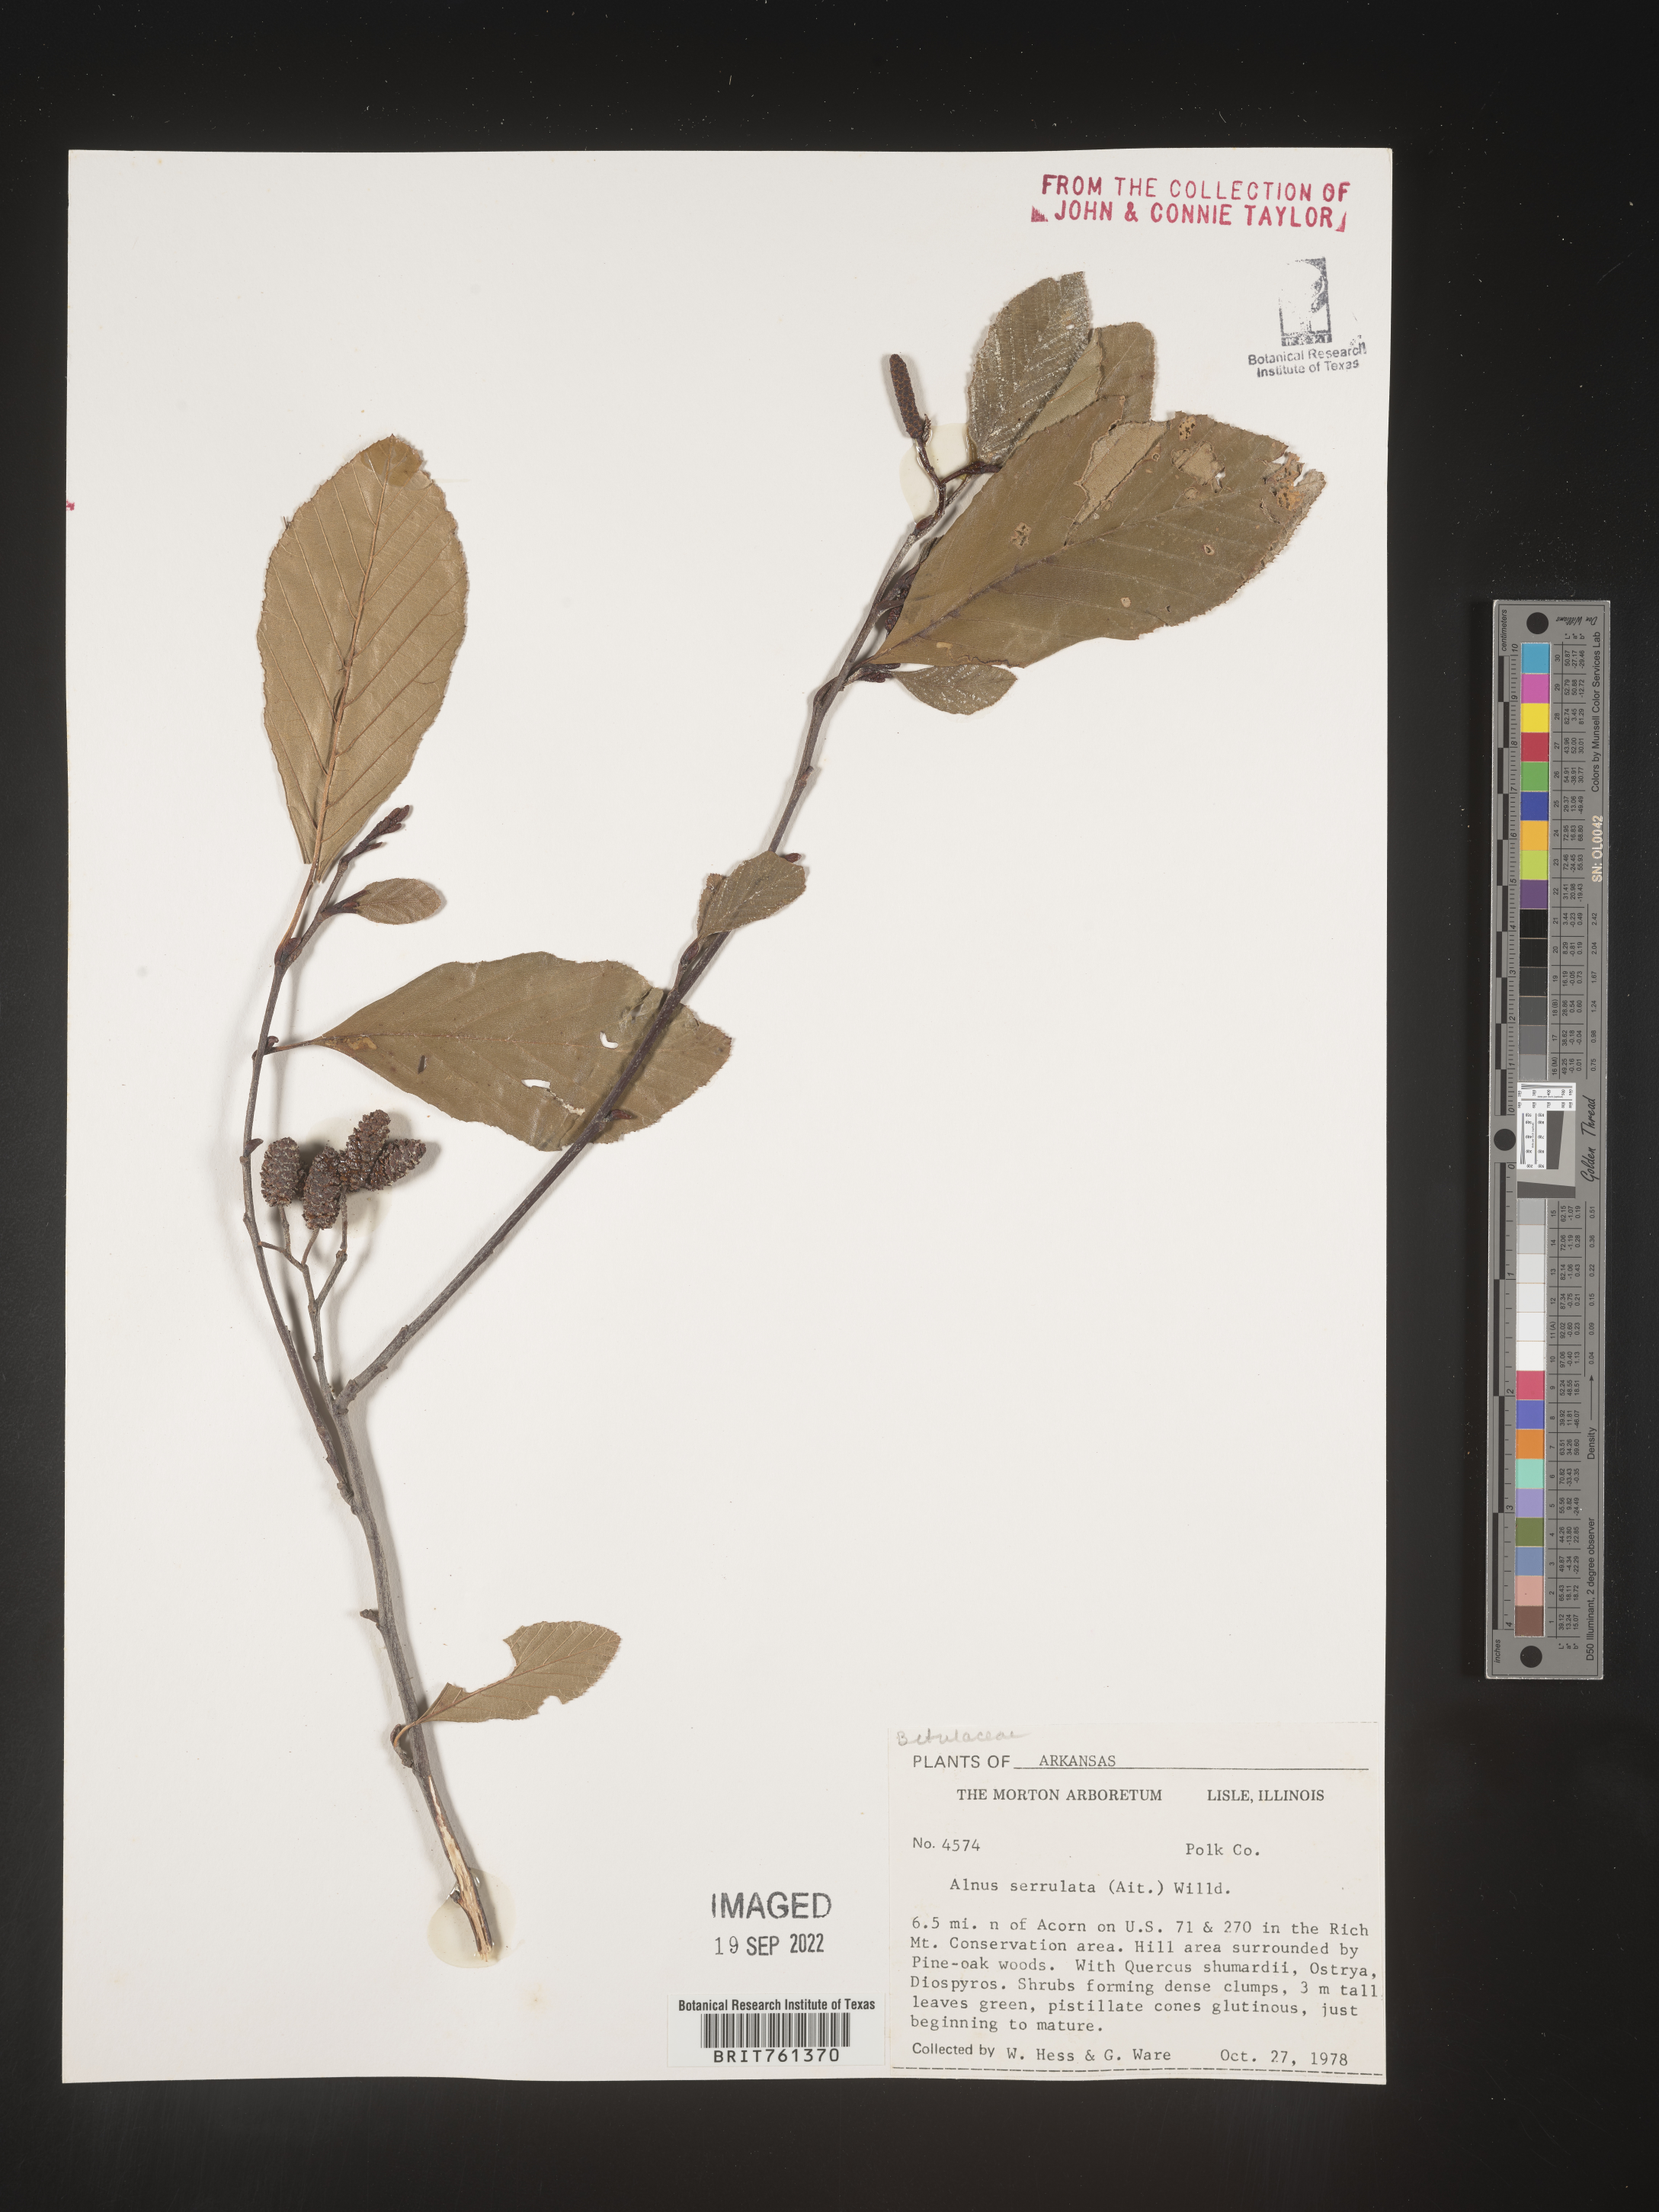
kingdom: Plantae
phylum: Tracheophyta
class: Magnoliopsida
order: Fagales
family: Betulaceae
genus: Alnus
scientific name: Alnus serrulata
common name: Hazel alder
